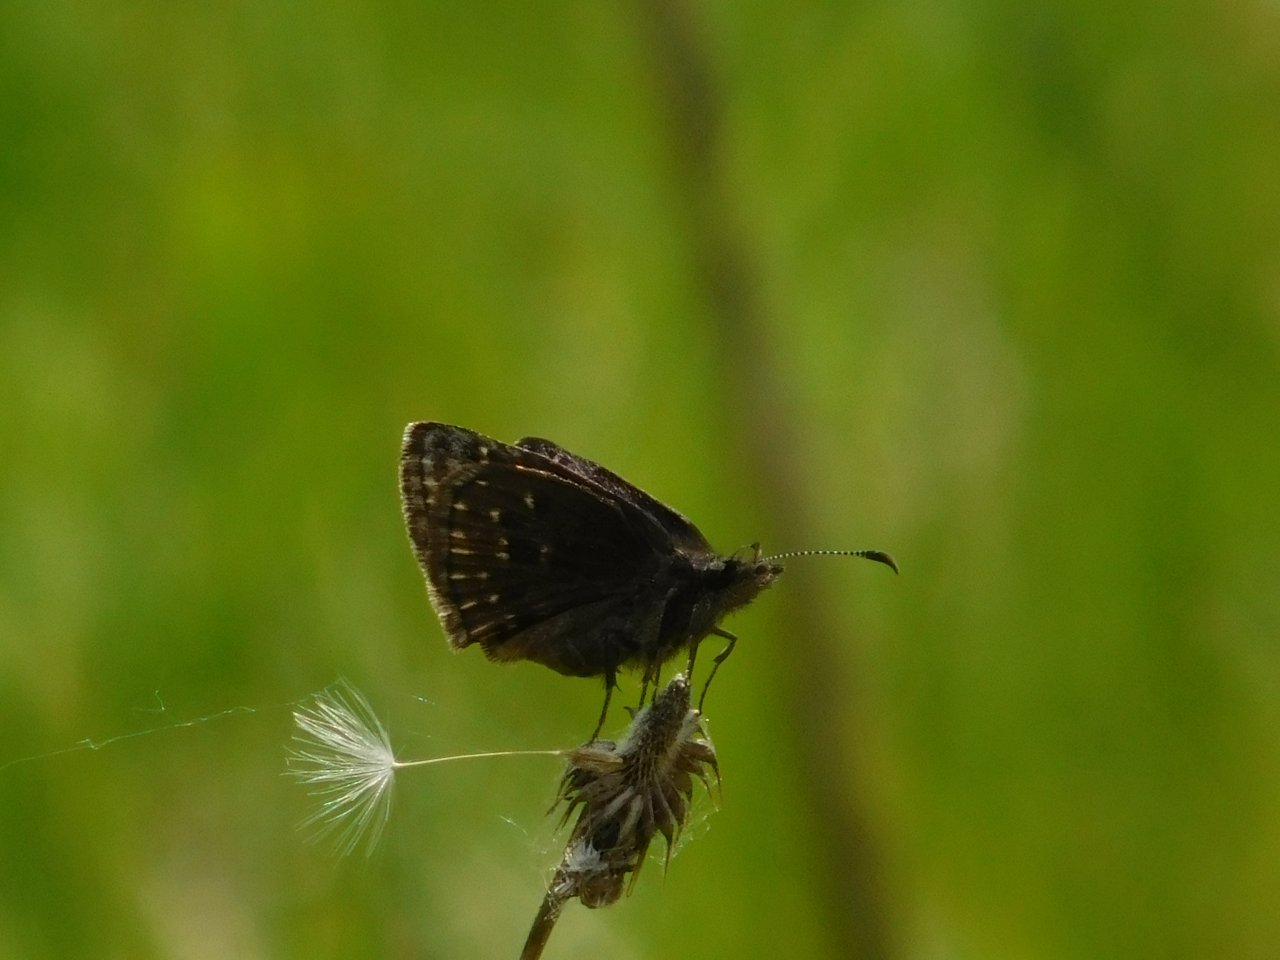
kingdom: Animalia
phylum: Arthropoda
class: Insecta
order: Lepidoptera
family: Hesperiidae
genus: Erynnis
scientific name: Erynnis icelus
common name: Dreamy Duskywing
